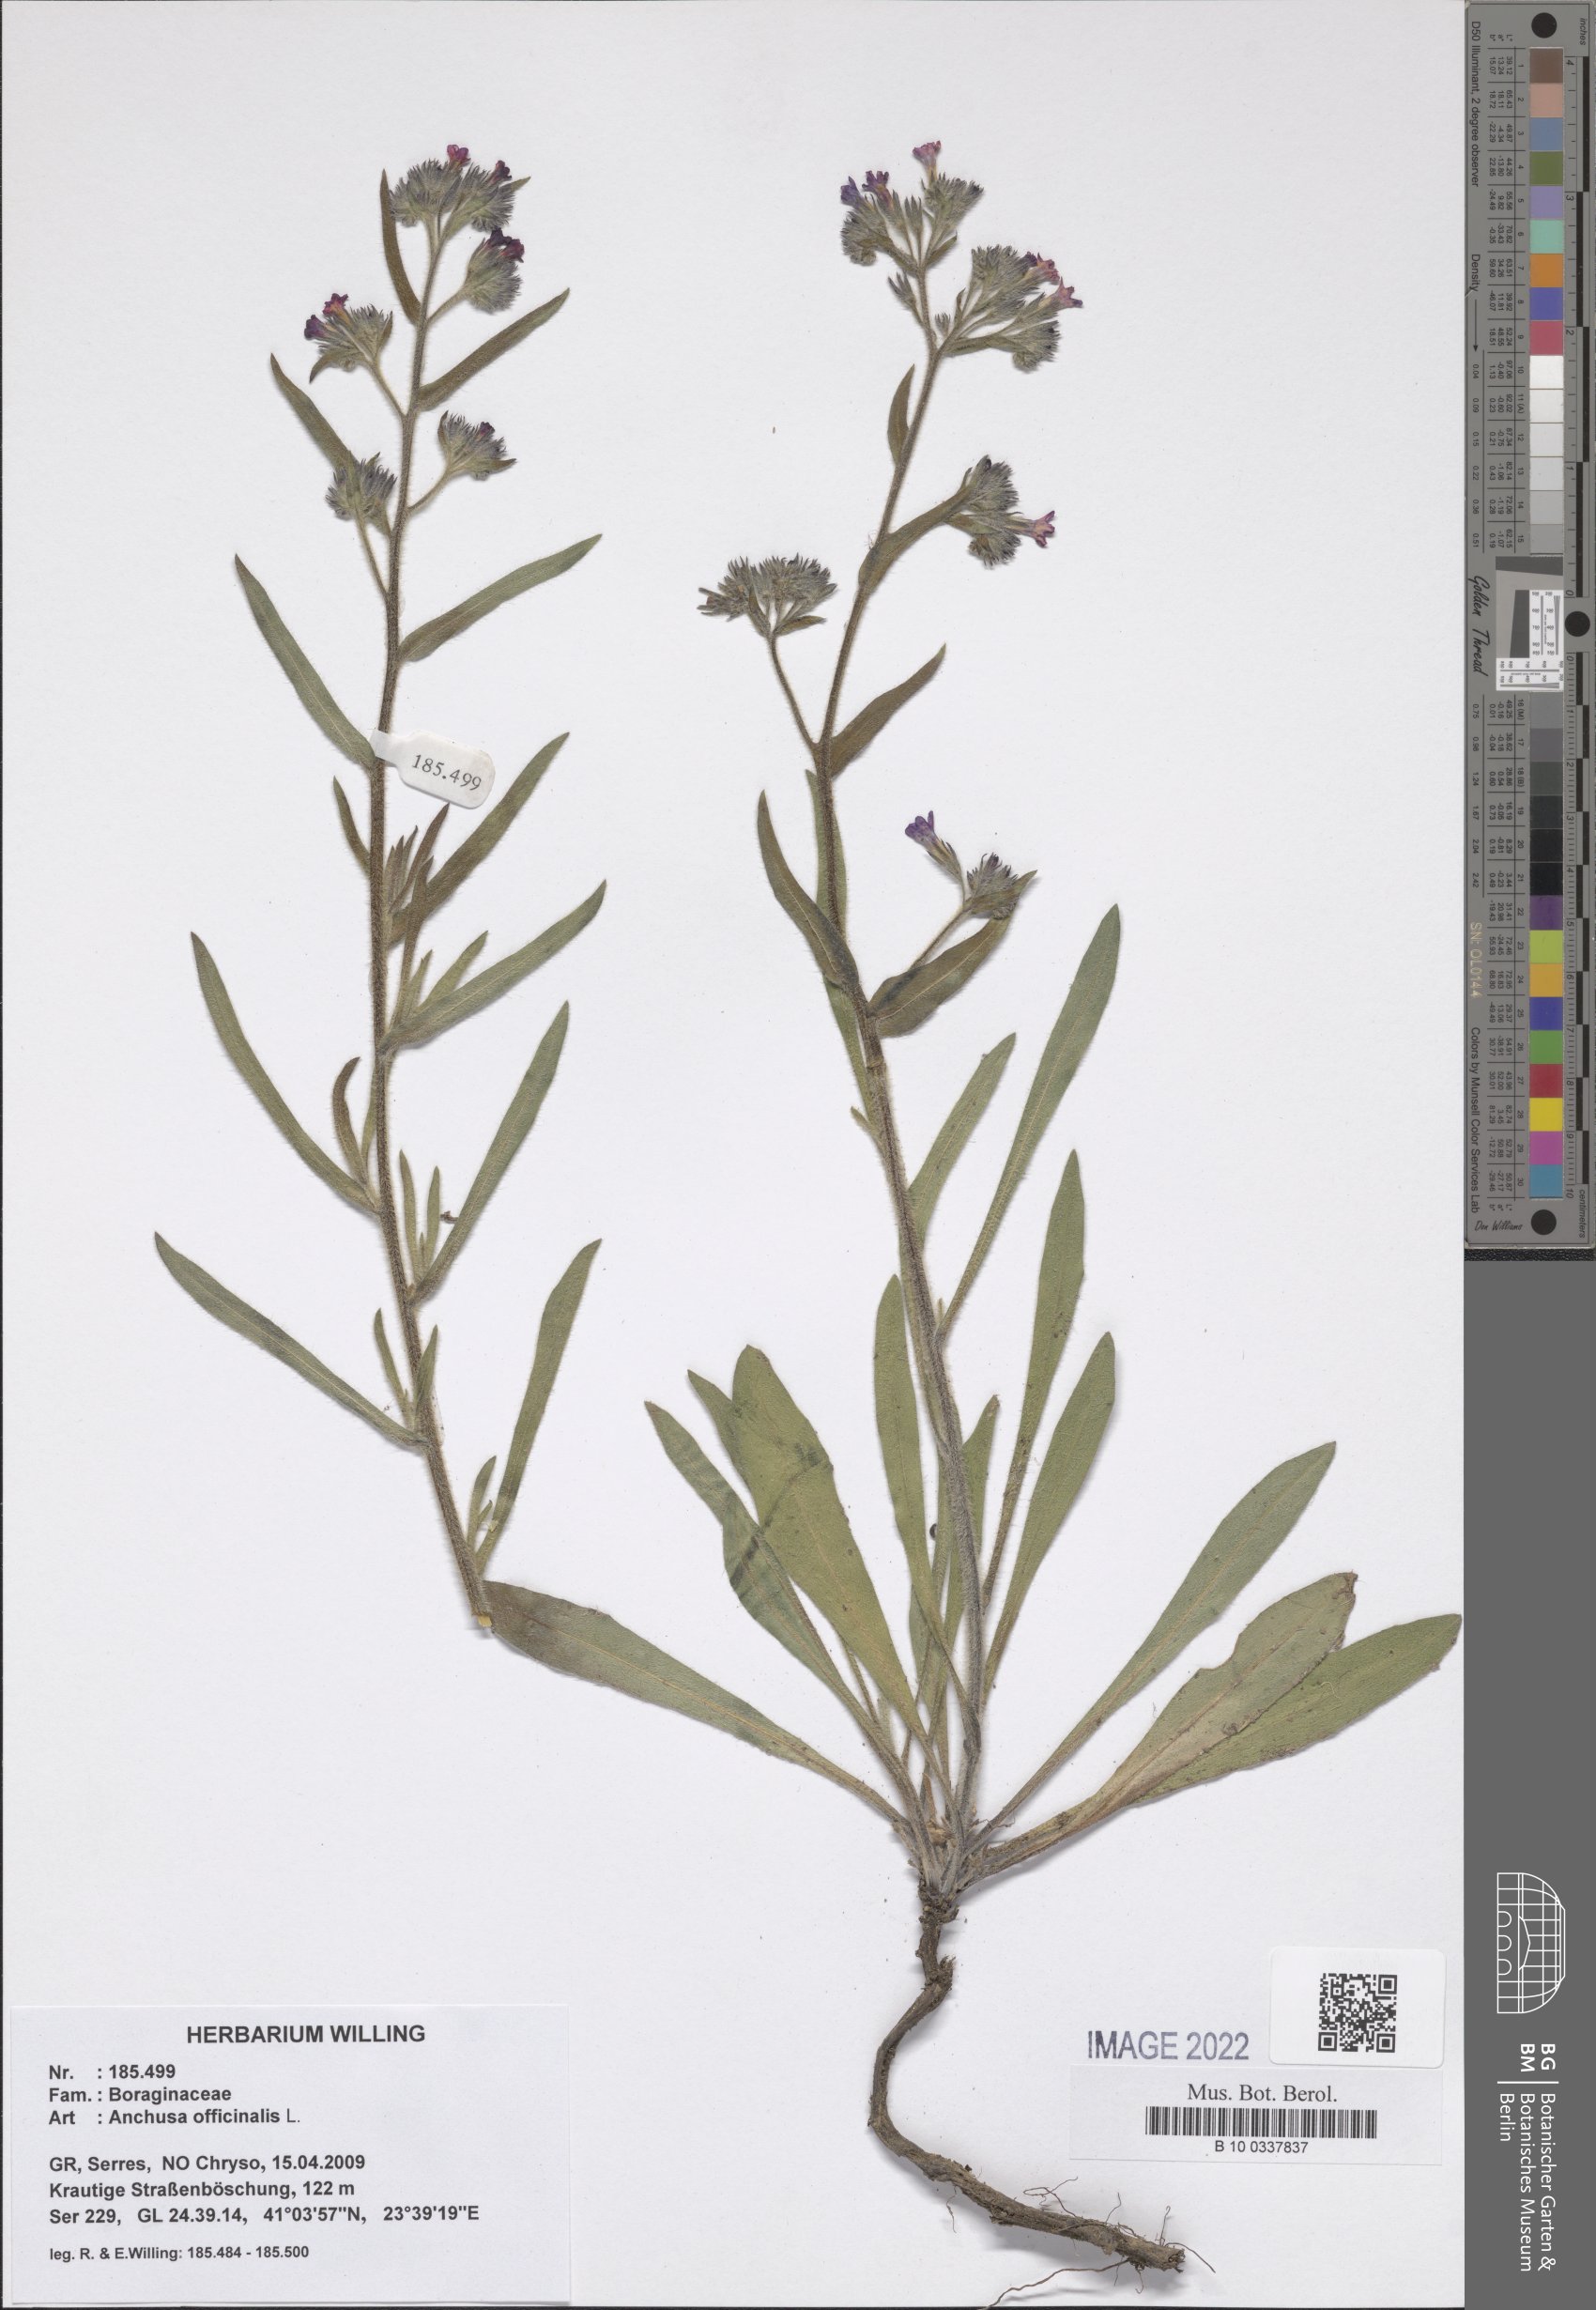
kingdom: Plantae
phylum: Tracheophyta
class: Magnoliopsida
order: Boraginales
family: Boraginaceae
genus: Anchusa
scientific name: Anchusa officinalis
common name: Alkanet
